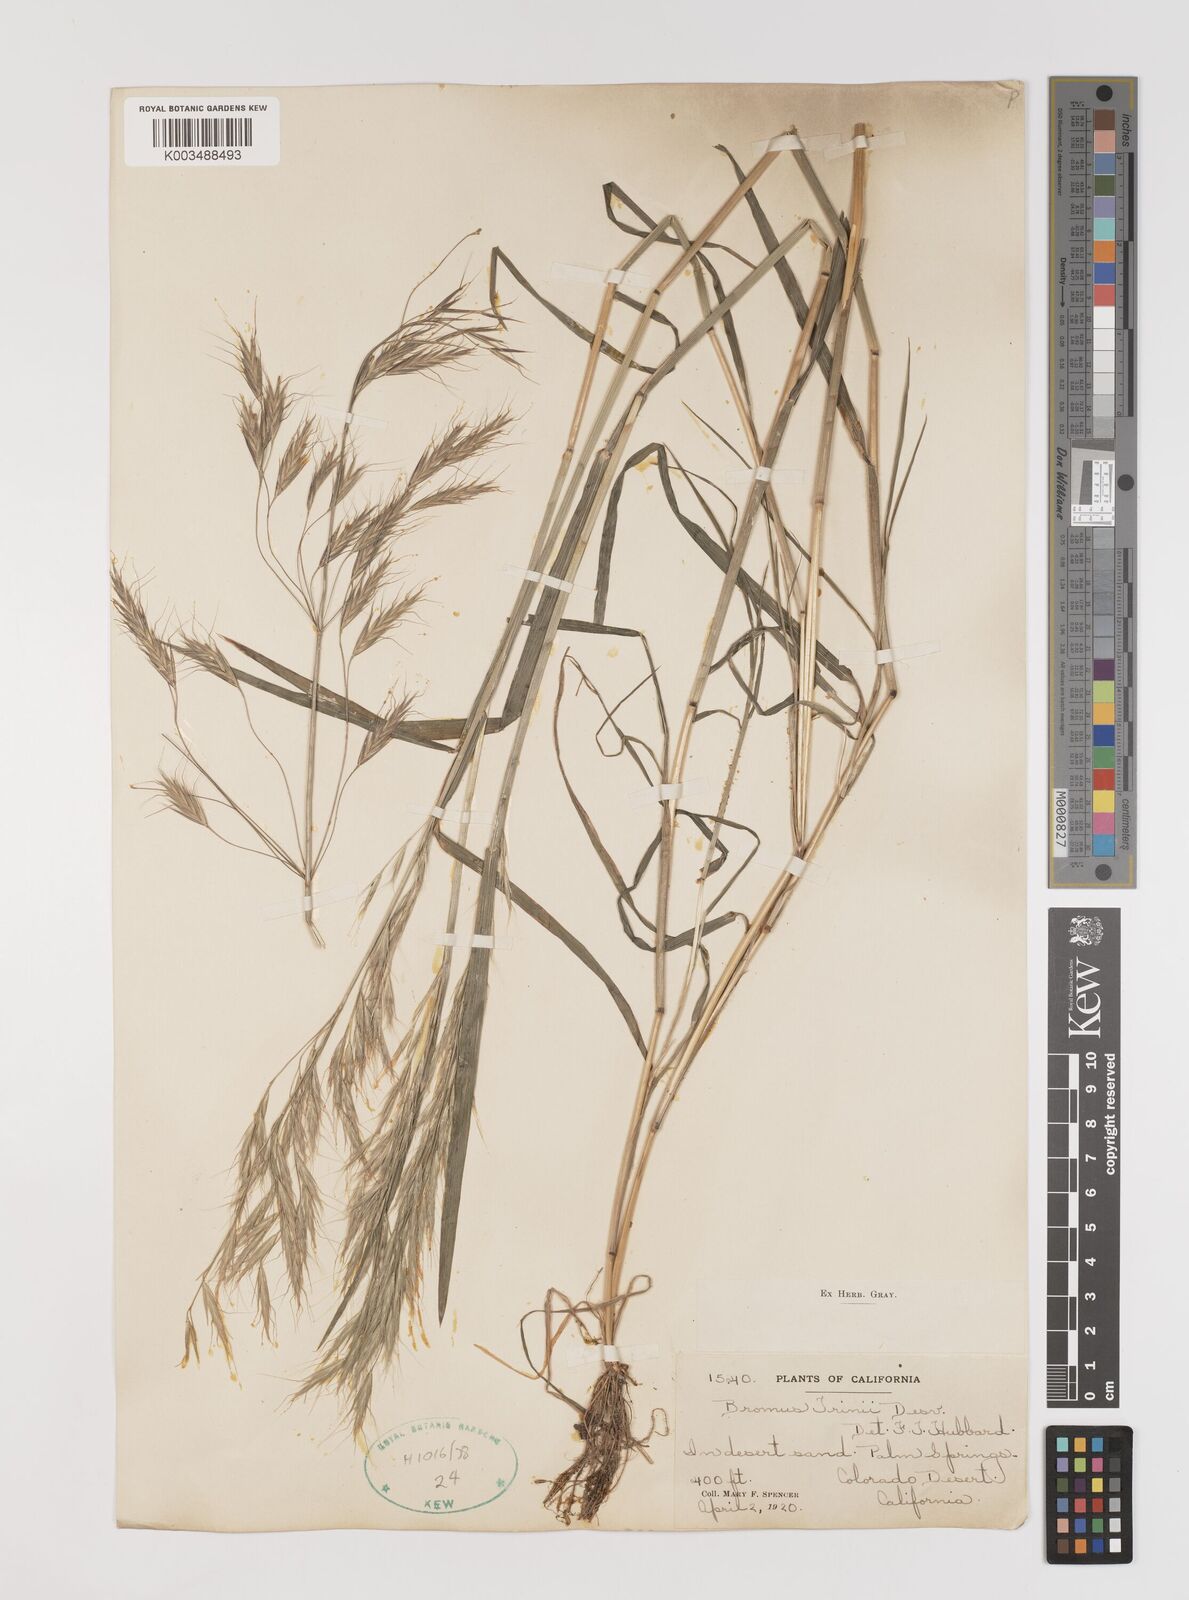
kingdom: Plantae
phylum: Tracheophyta
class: Liliopsida
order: Poales
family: Poaceae
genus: Bromus
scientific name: Bromus berteroanus
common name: Chilean chess
